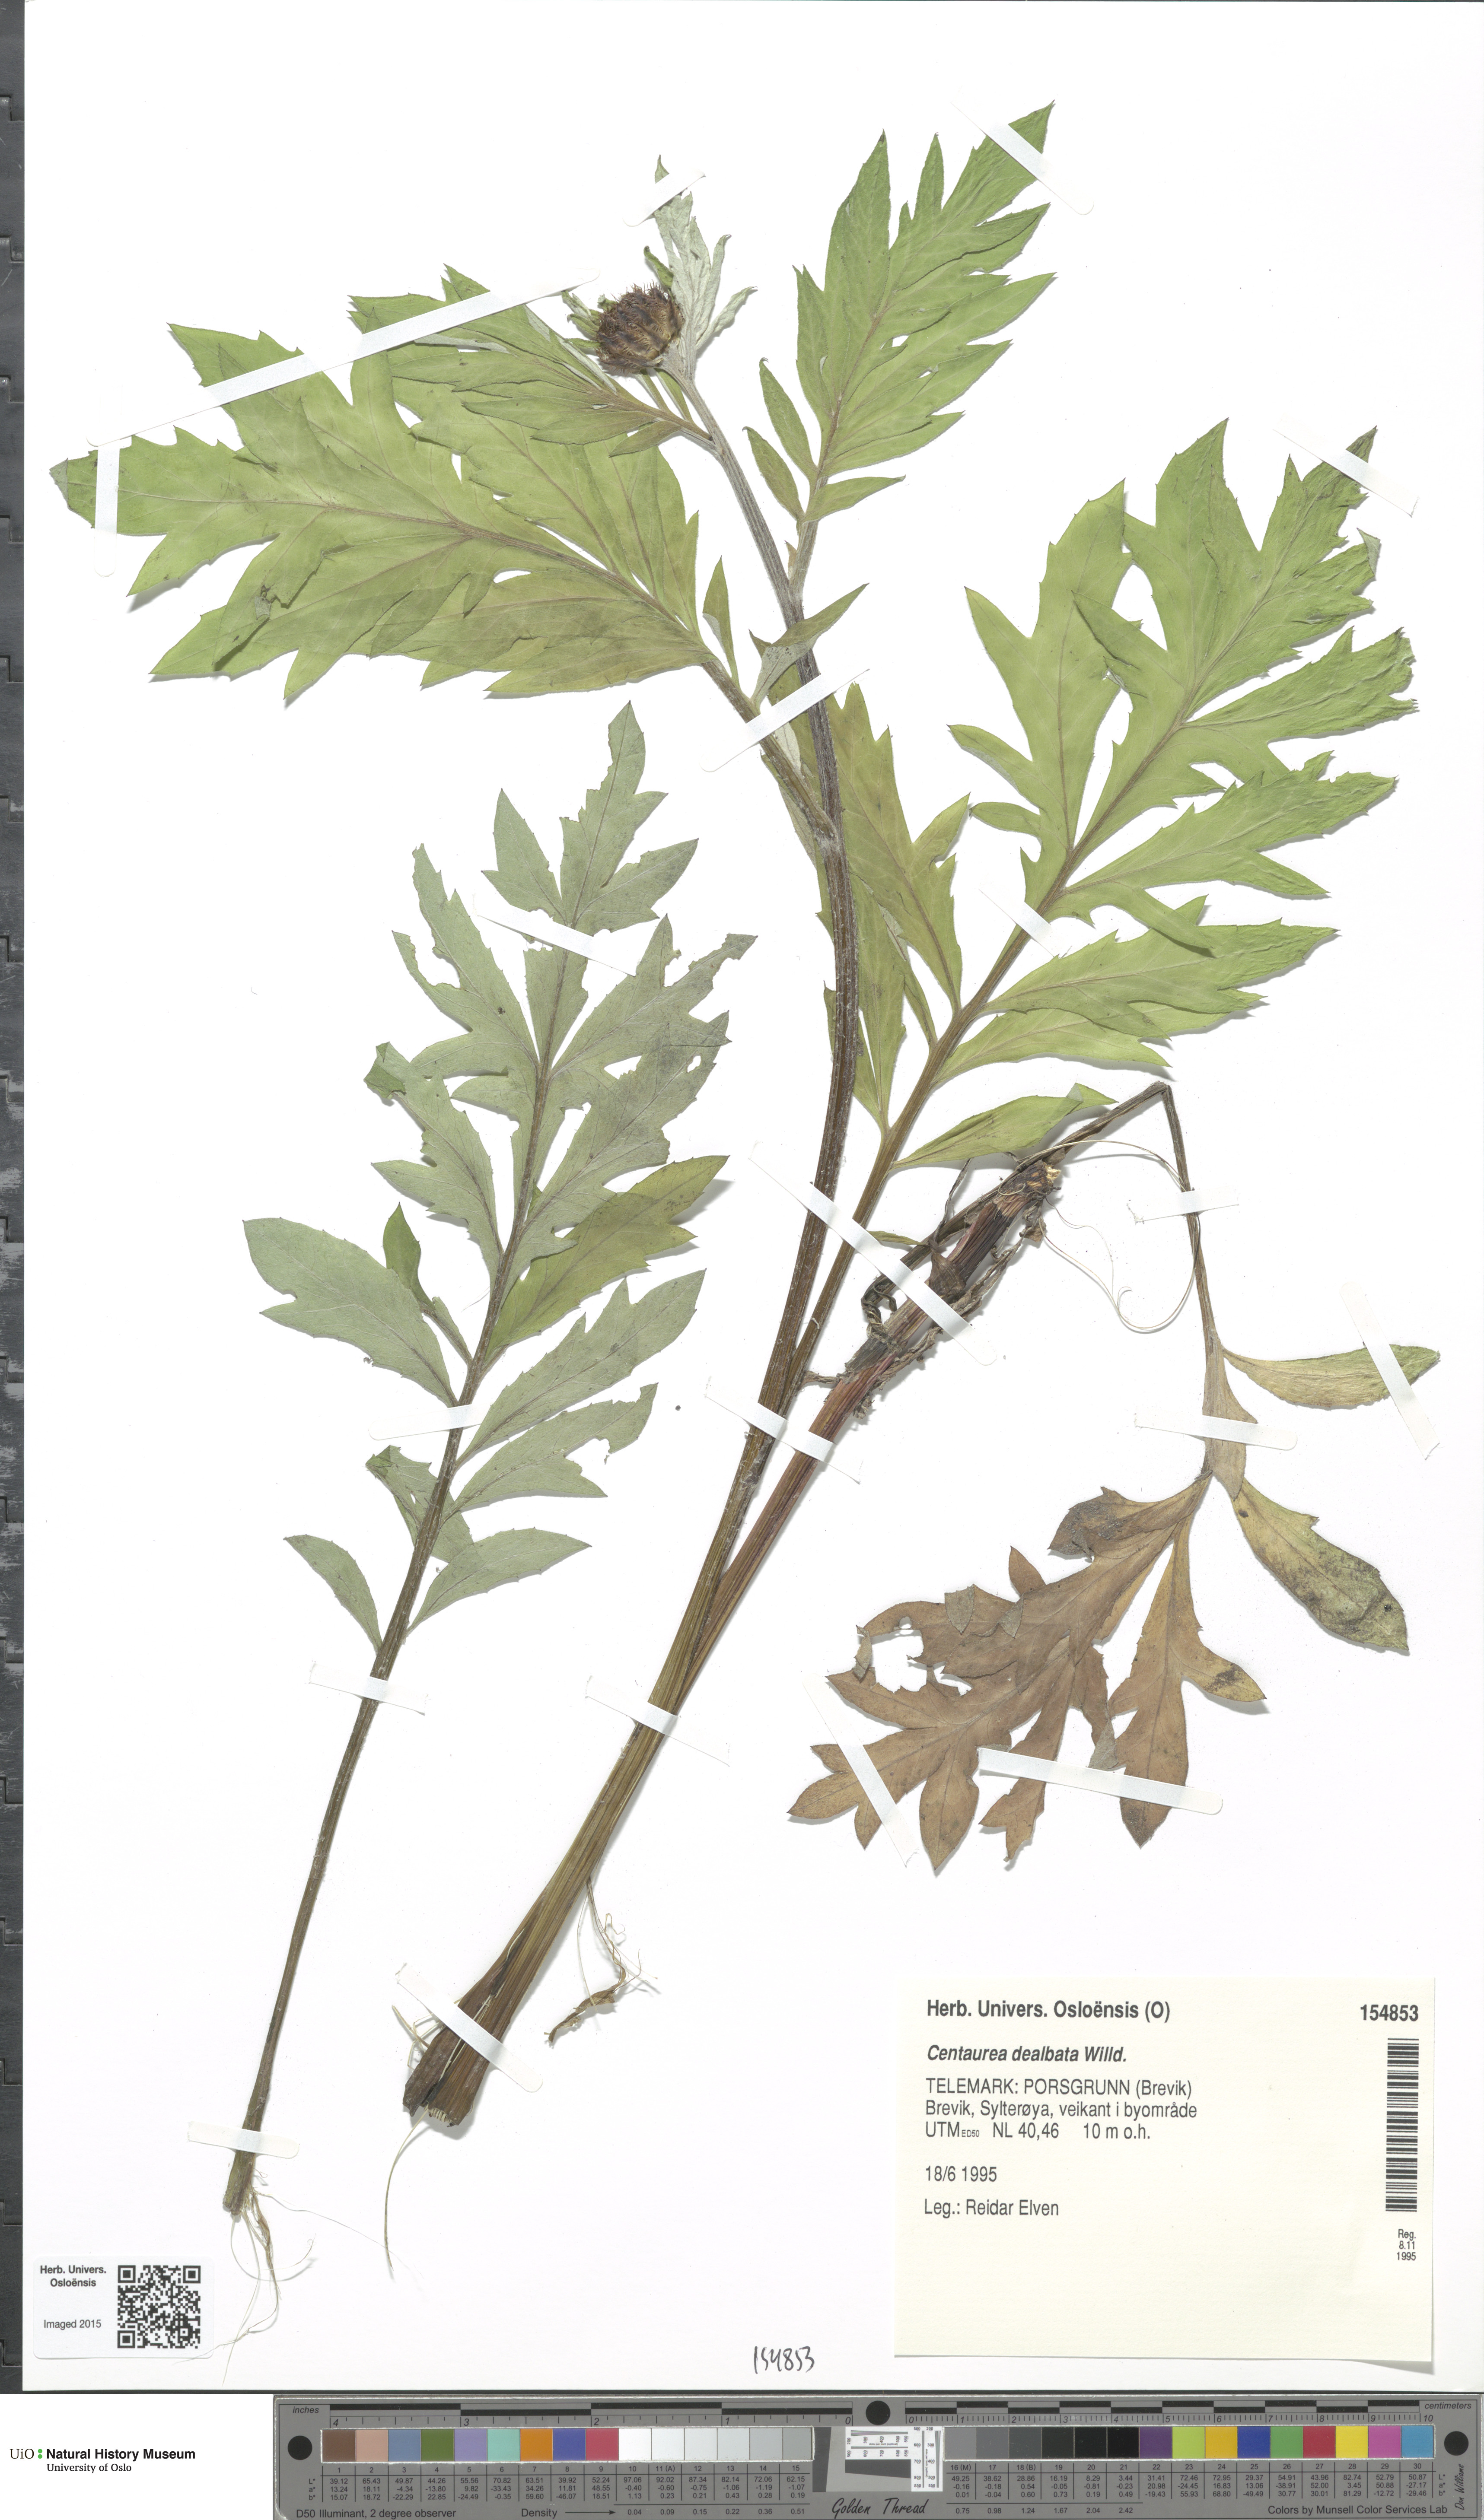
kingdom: Plantae
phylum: Tracheophyta
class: Magnoliopsida
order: Asterales
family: Asteraceae
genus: Psephellus
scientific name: Psephellus dealbatus
